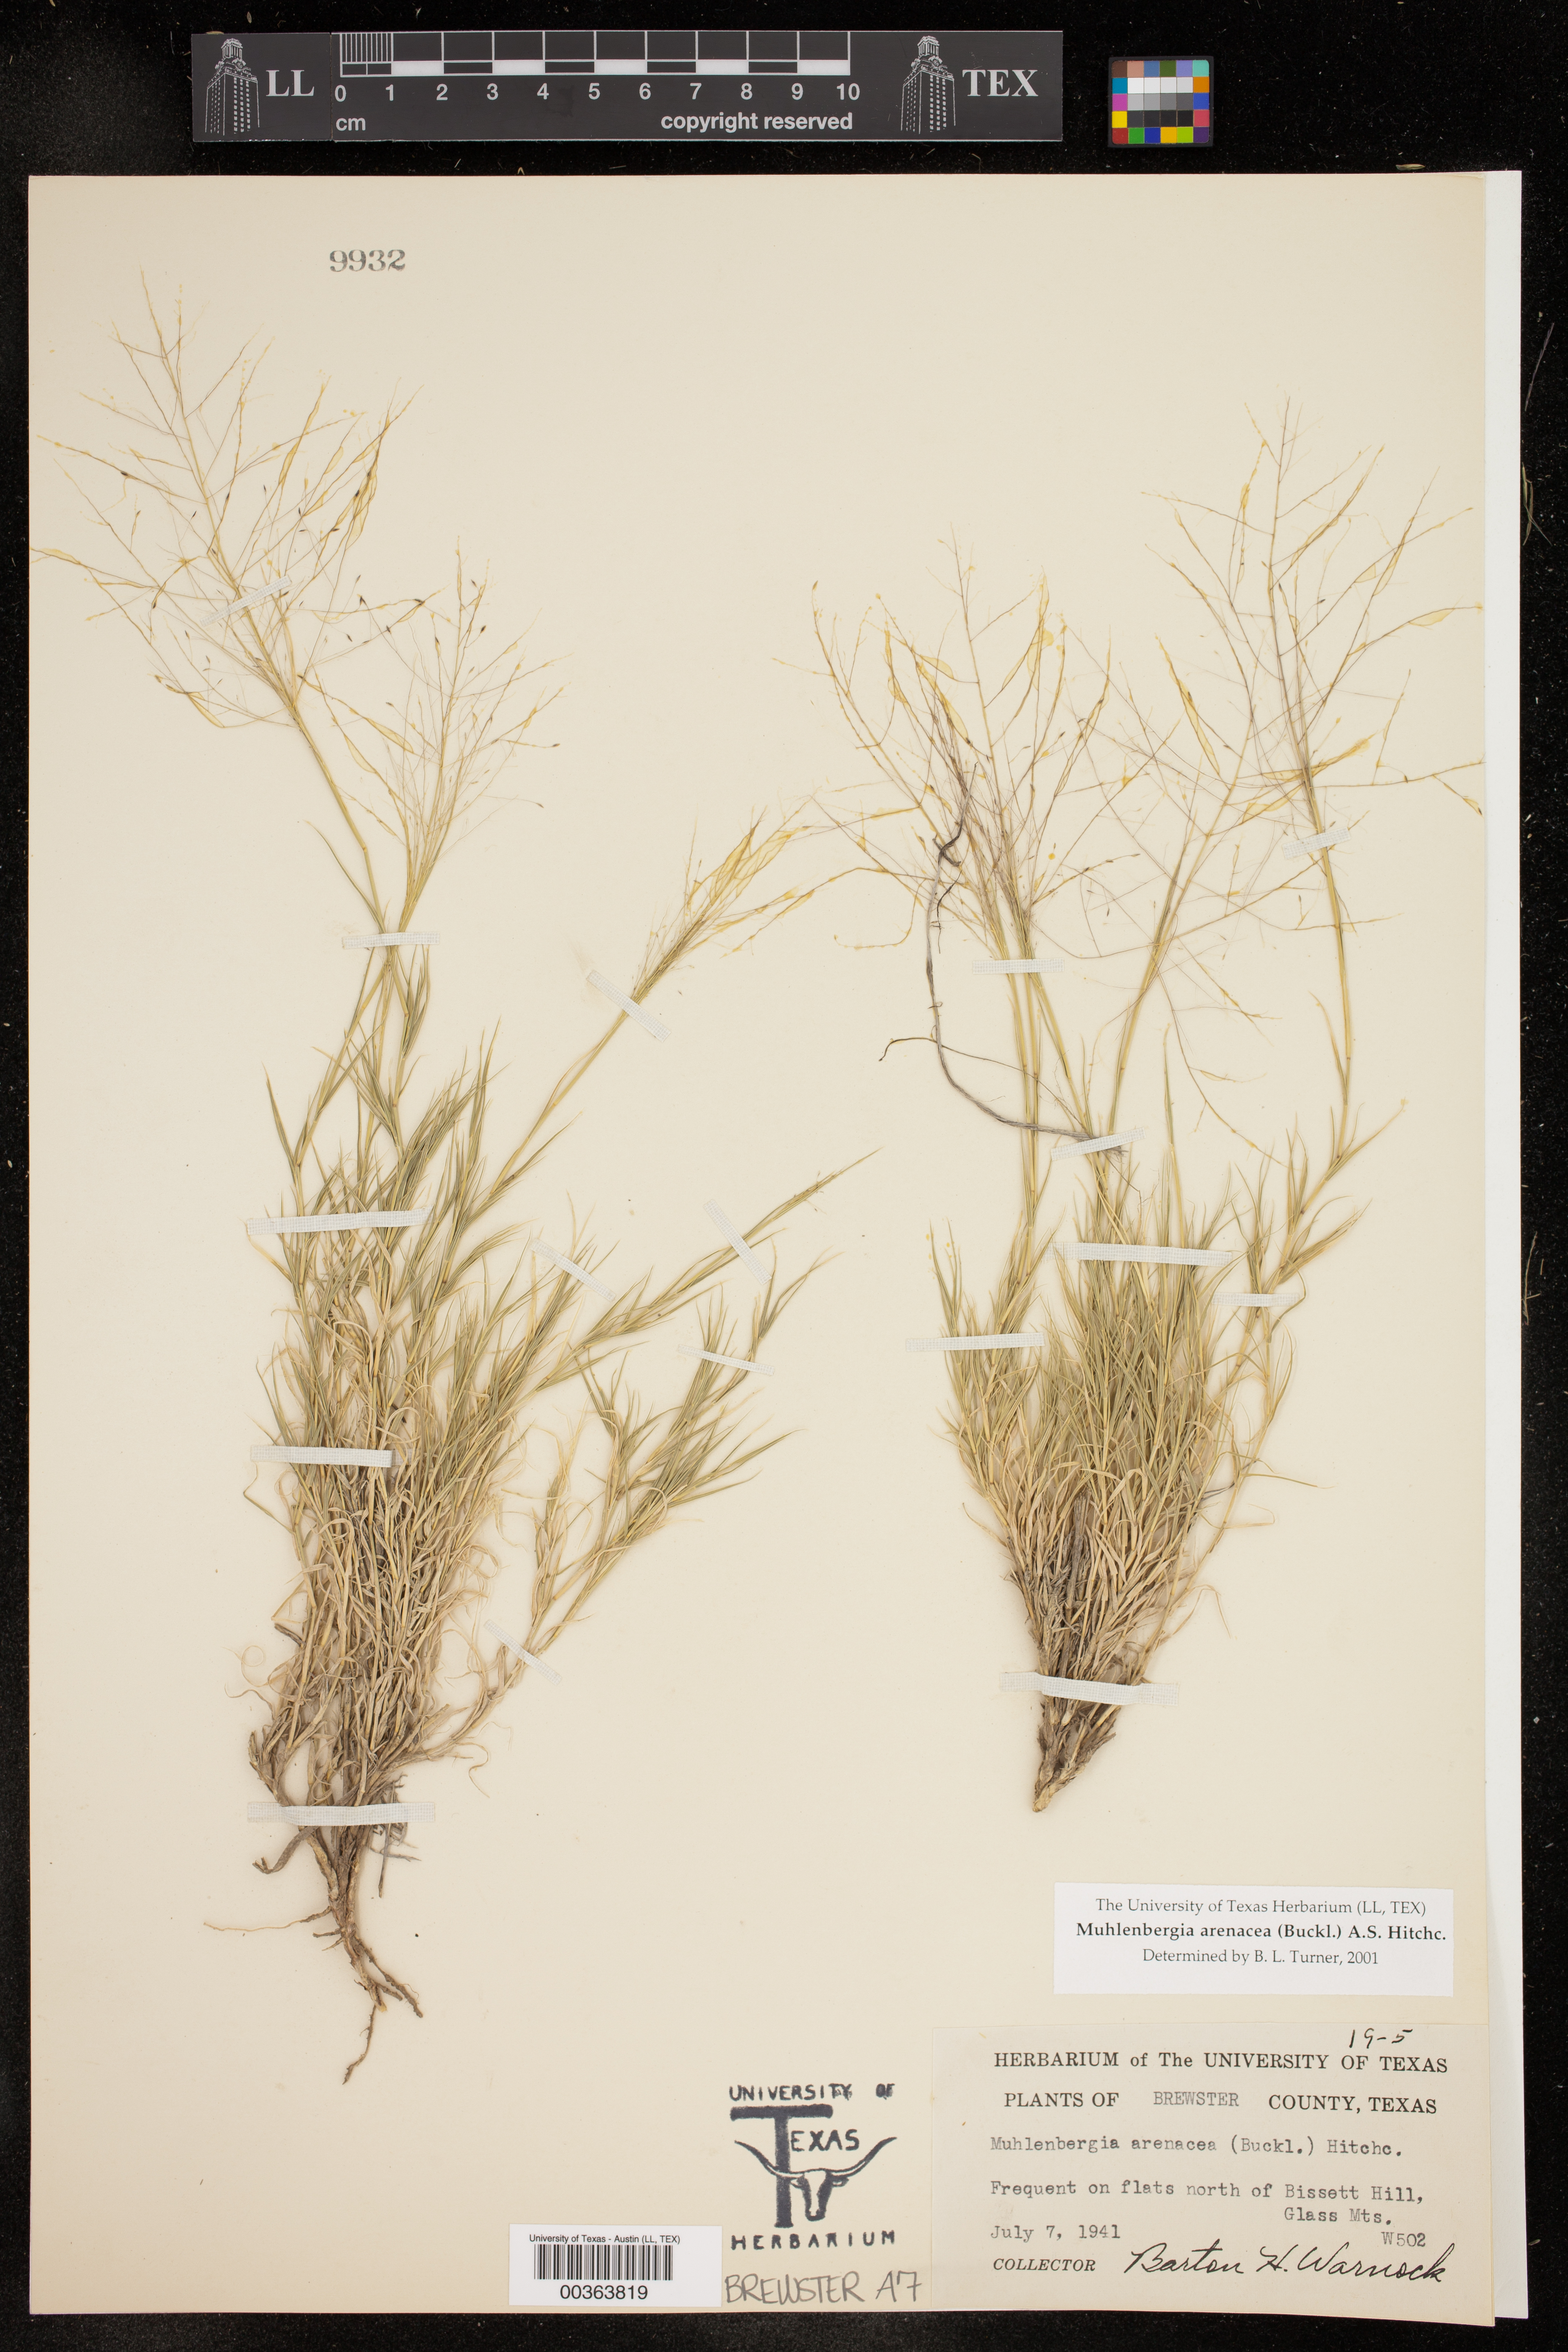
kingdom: Plantae
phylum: Tracheophyta
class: Liliopsida
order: Poales
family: Poaceae
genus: Muhlenbergia
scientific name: Muhlenbergia arenacea
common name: Ear muhly
